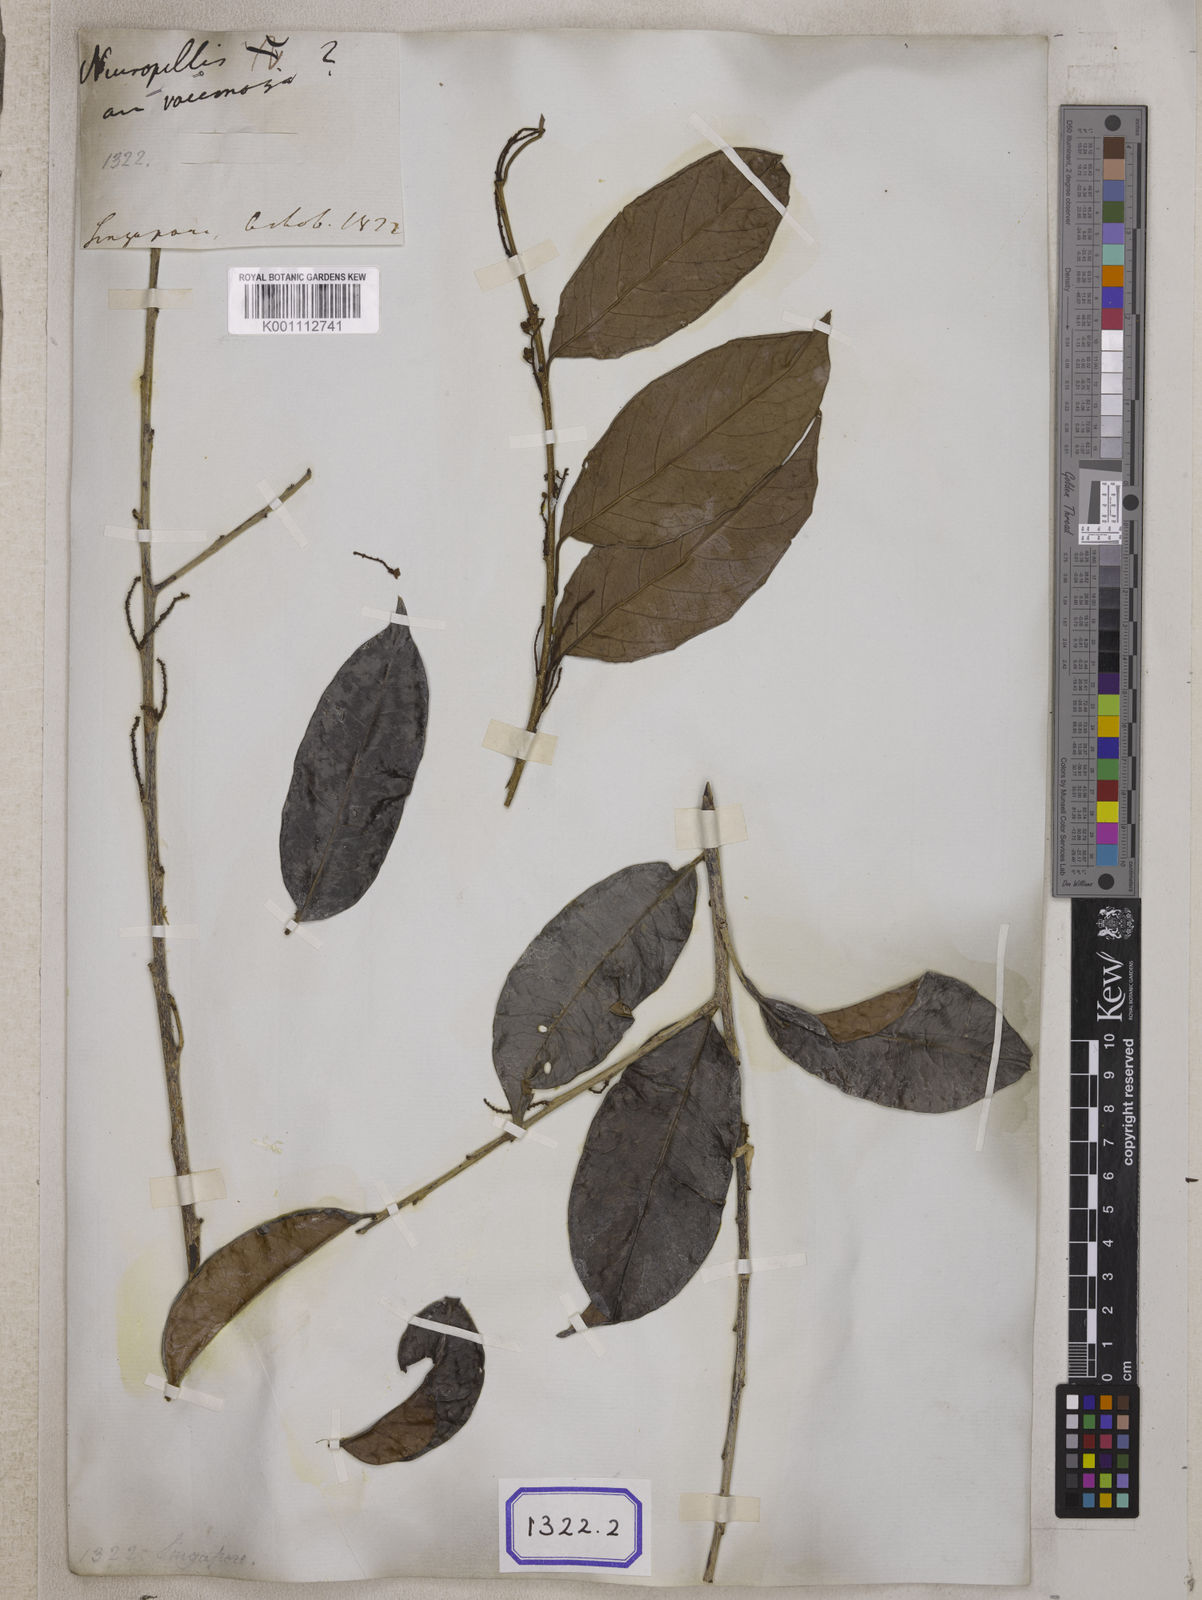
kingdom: Plantae
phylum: Tracheophyta
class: Magnoliopsida
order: Solanales
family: Convolvulaceae
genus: Neuropeltis
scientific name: Neuropeltis racemosa
